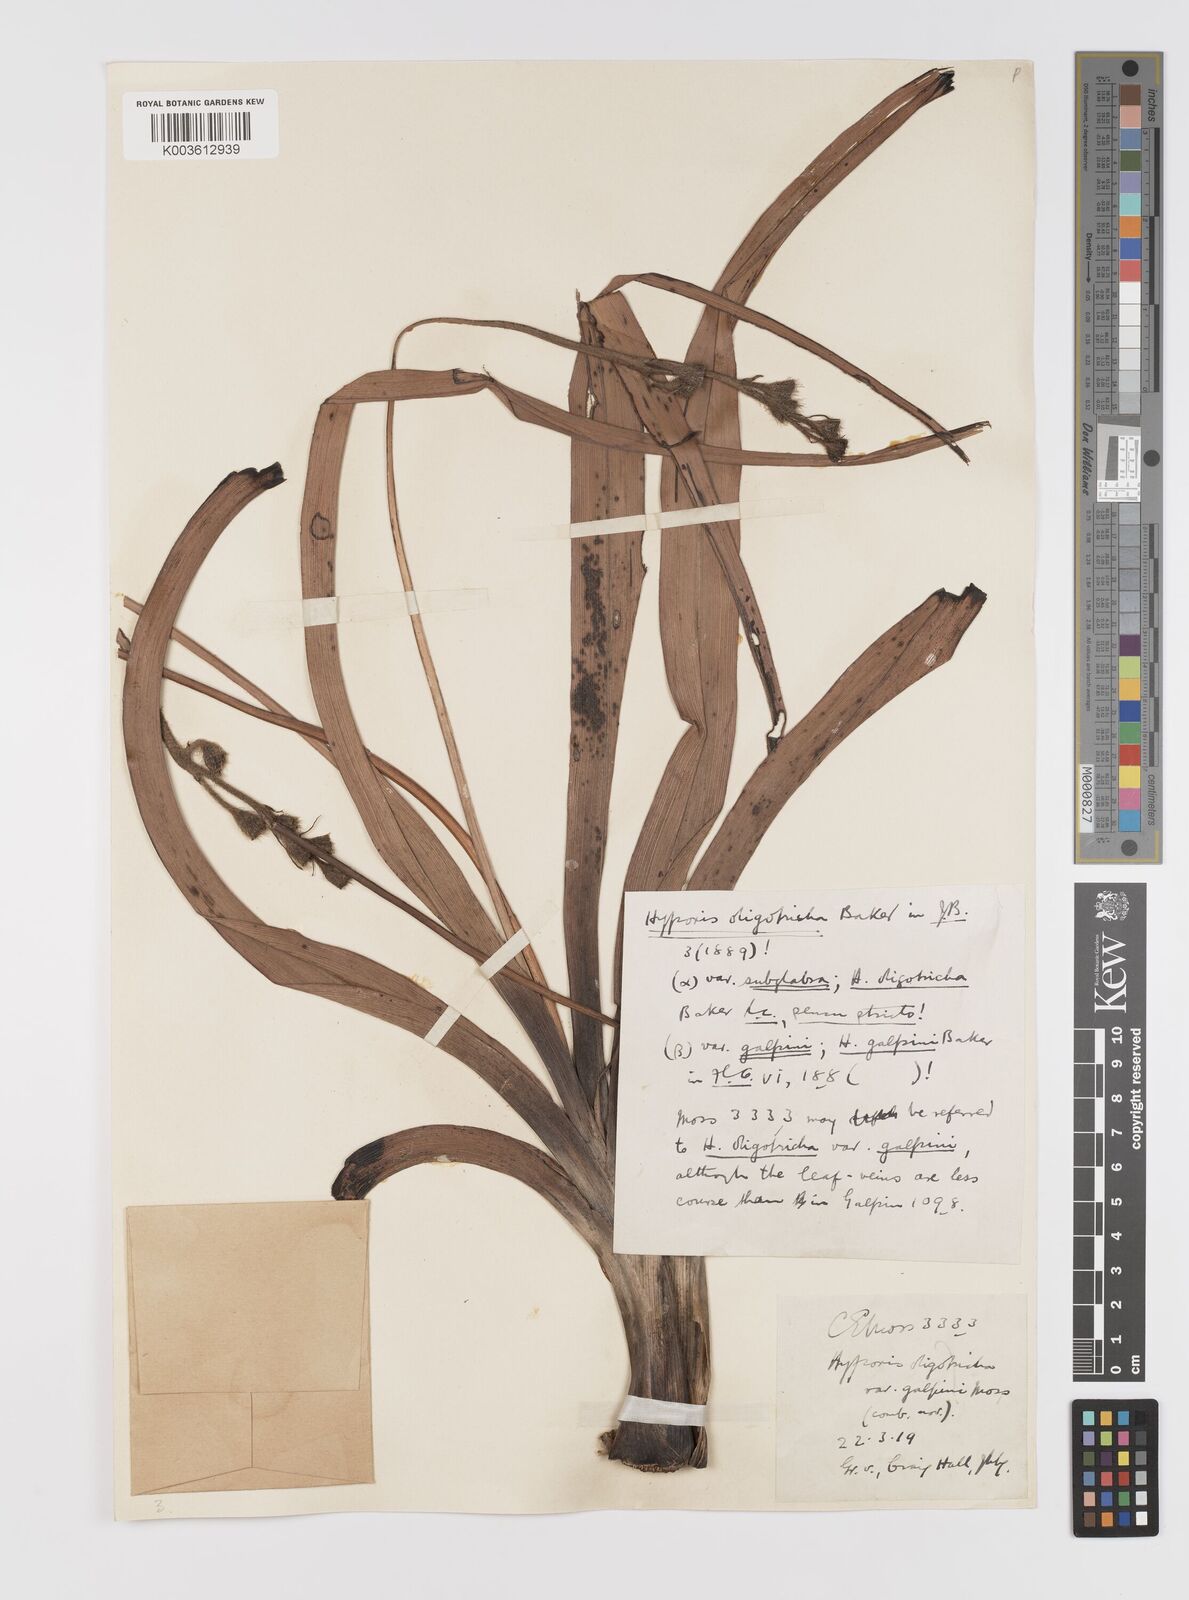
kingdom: Plantae
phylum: Tracheophyta
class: Liliopsida
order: Asparagales
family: Hypoxidaceae
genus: Hypoxis
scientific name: Hypoxis galpinii
